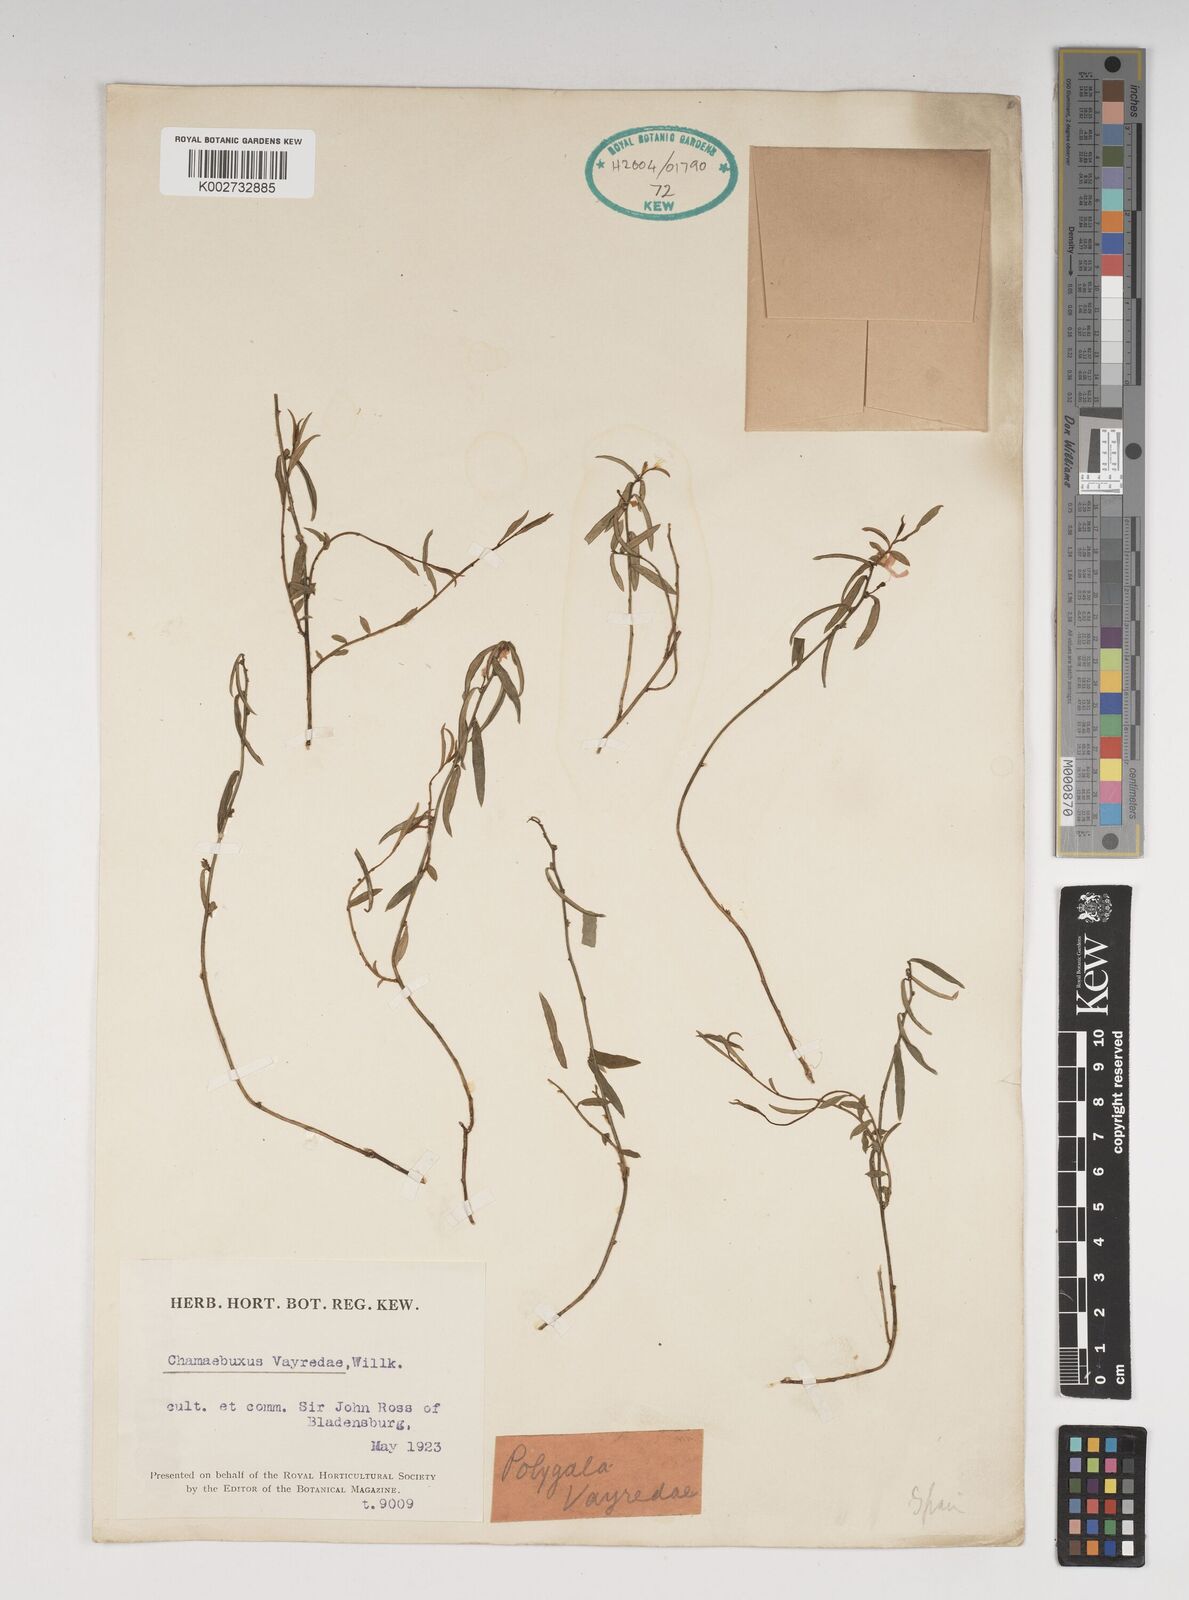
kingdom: Plantae
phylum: Tracheophyta
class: Magnoliopsida
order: Fabales
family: Polygalaceae
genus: Polygaloides
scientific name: Polygaloides vayredae
